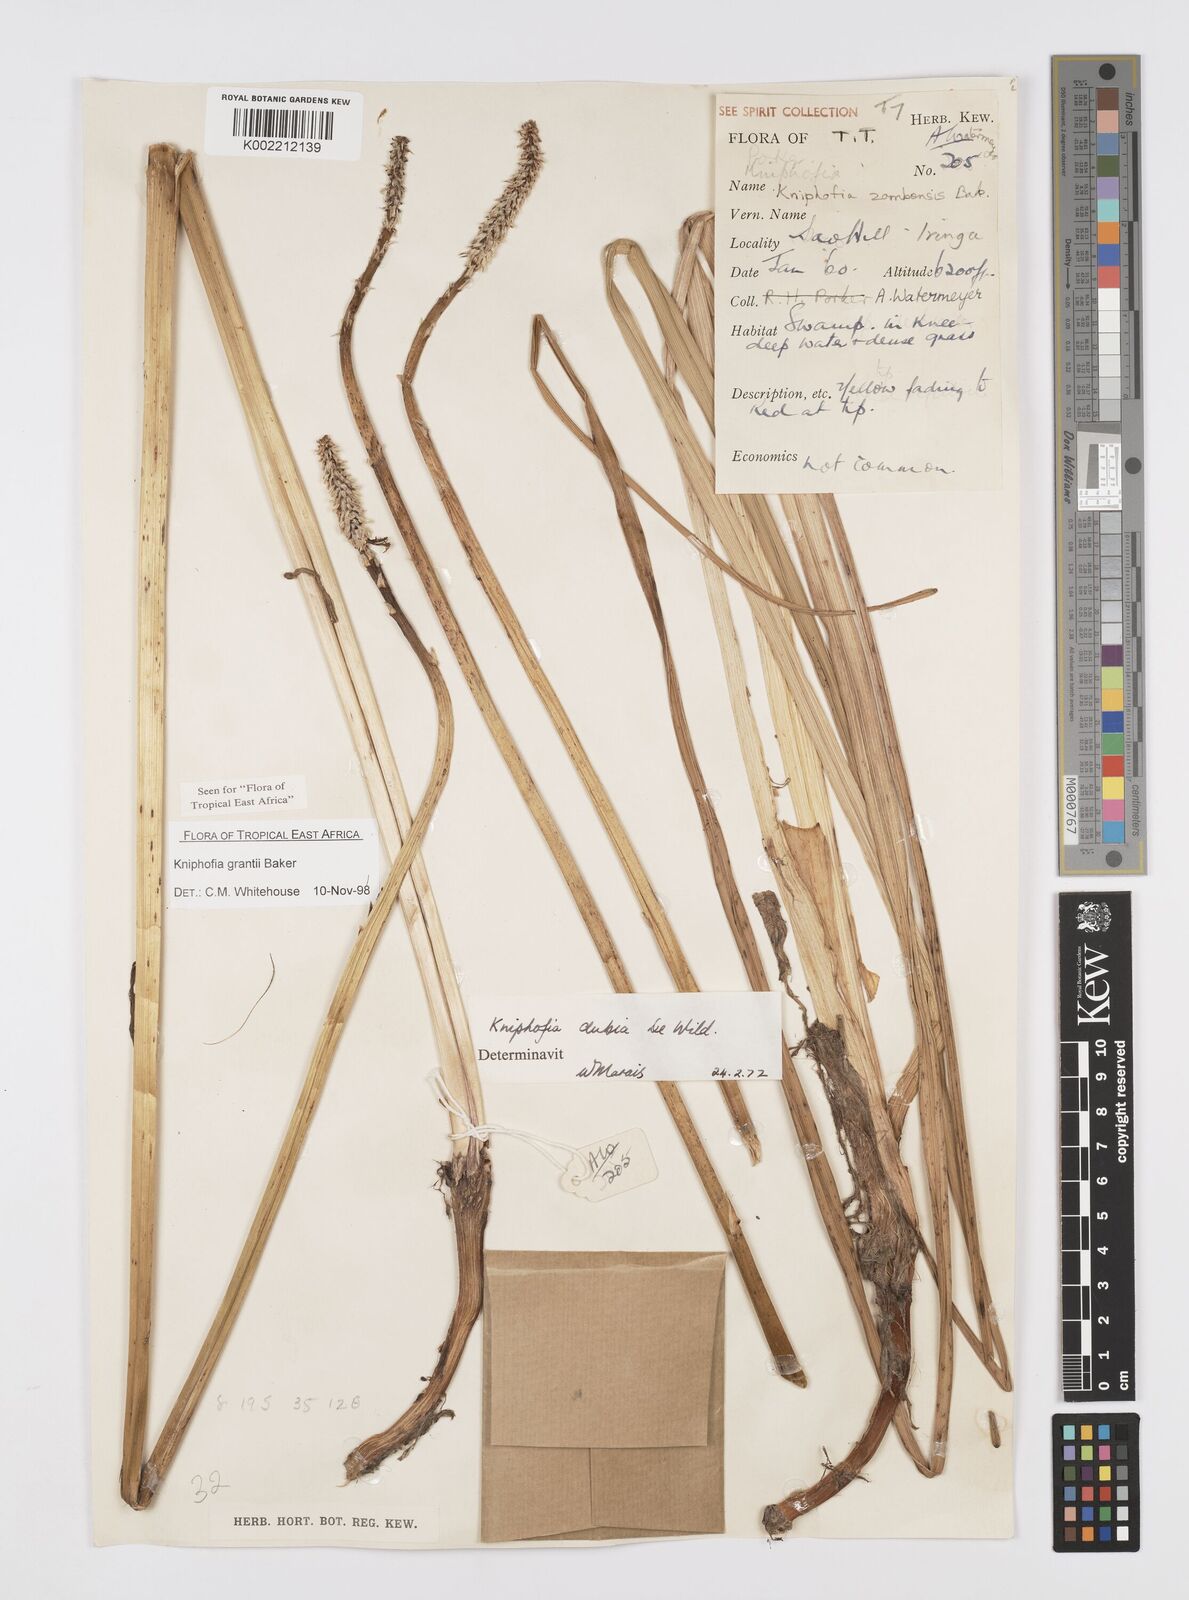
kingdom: Plantae
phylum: Tracheophyta
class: Liliopsida
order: Asparagales
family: Asphodelaceae
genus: Kniphofia
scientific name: Kniphofia grantii
